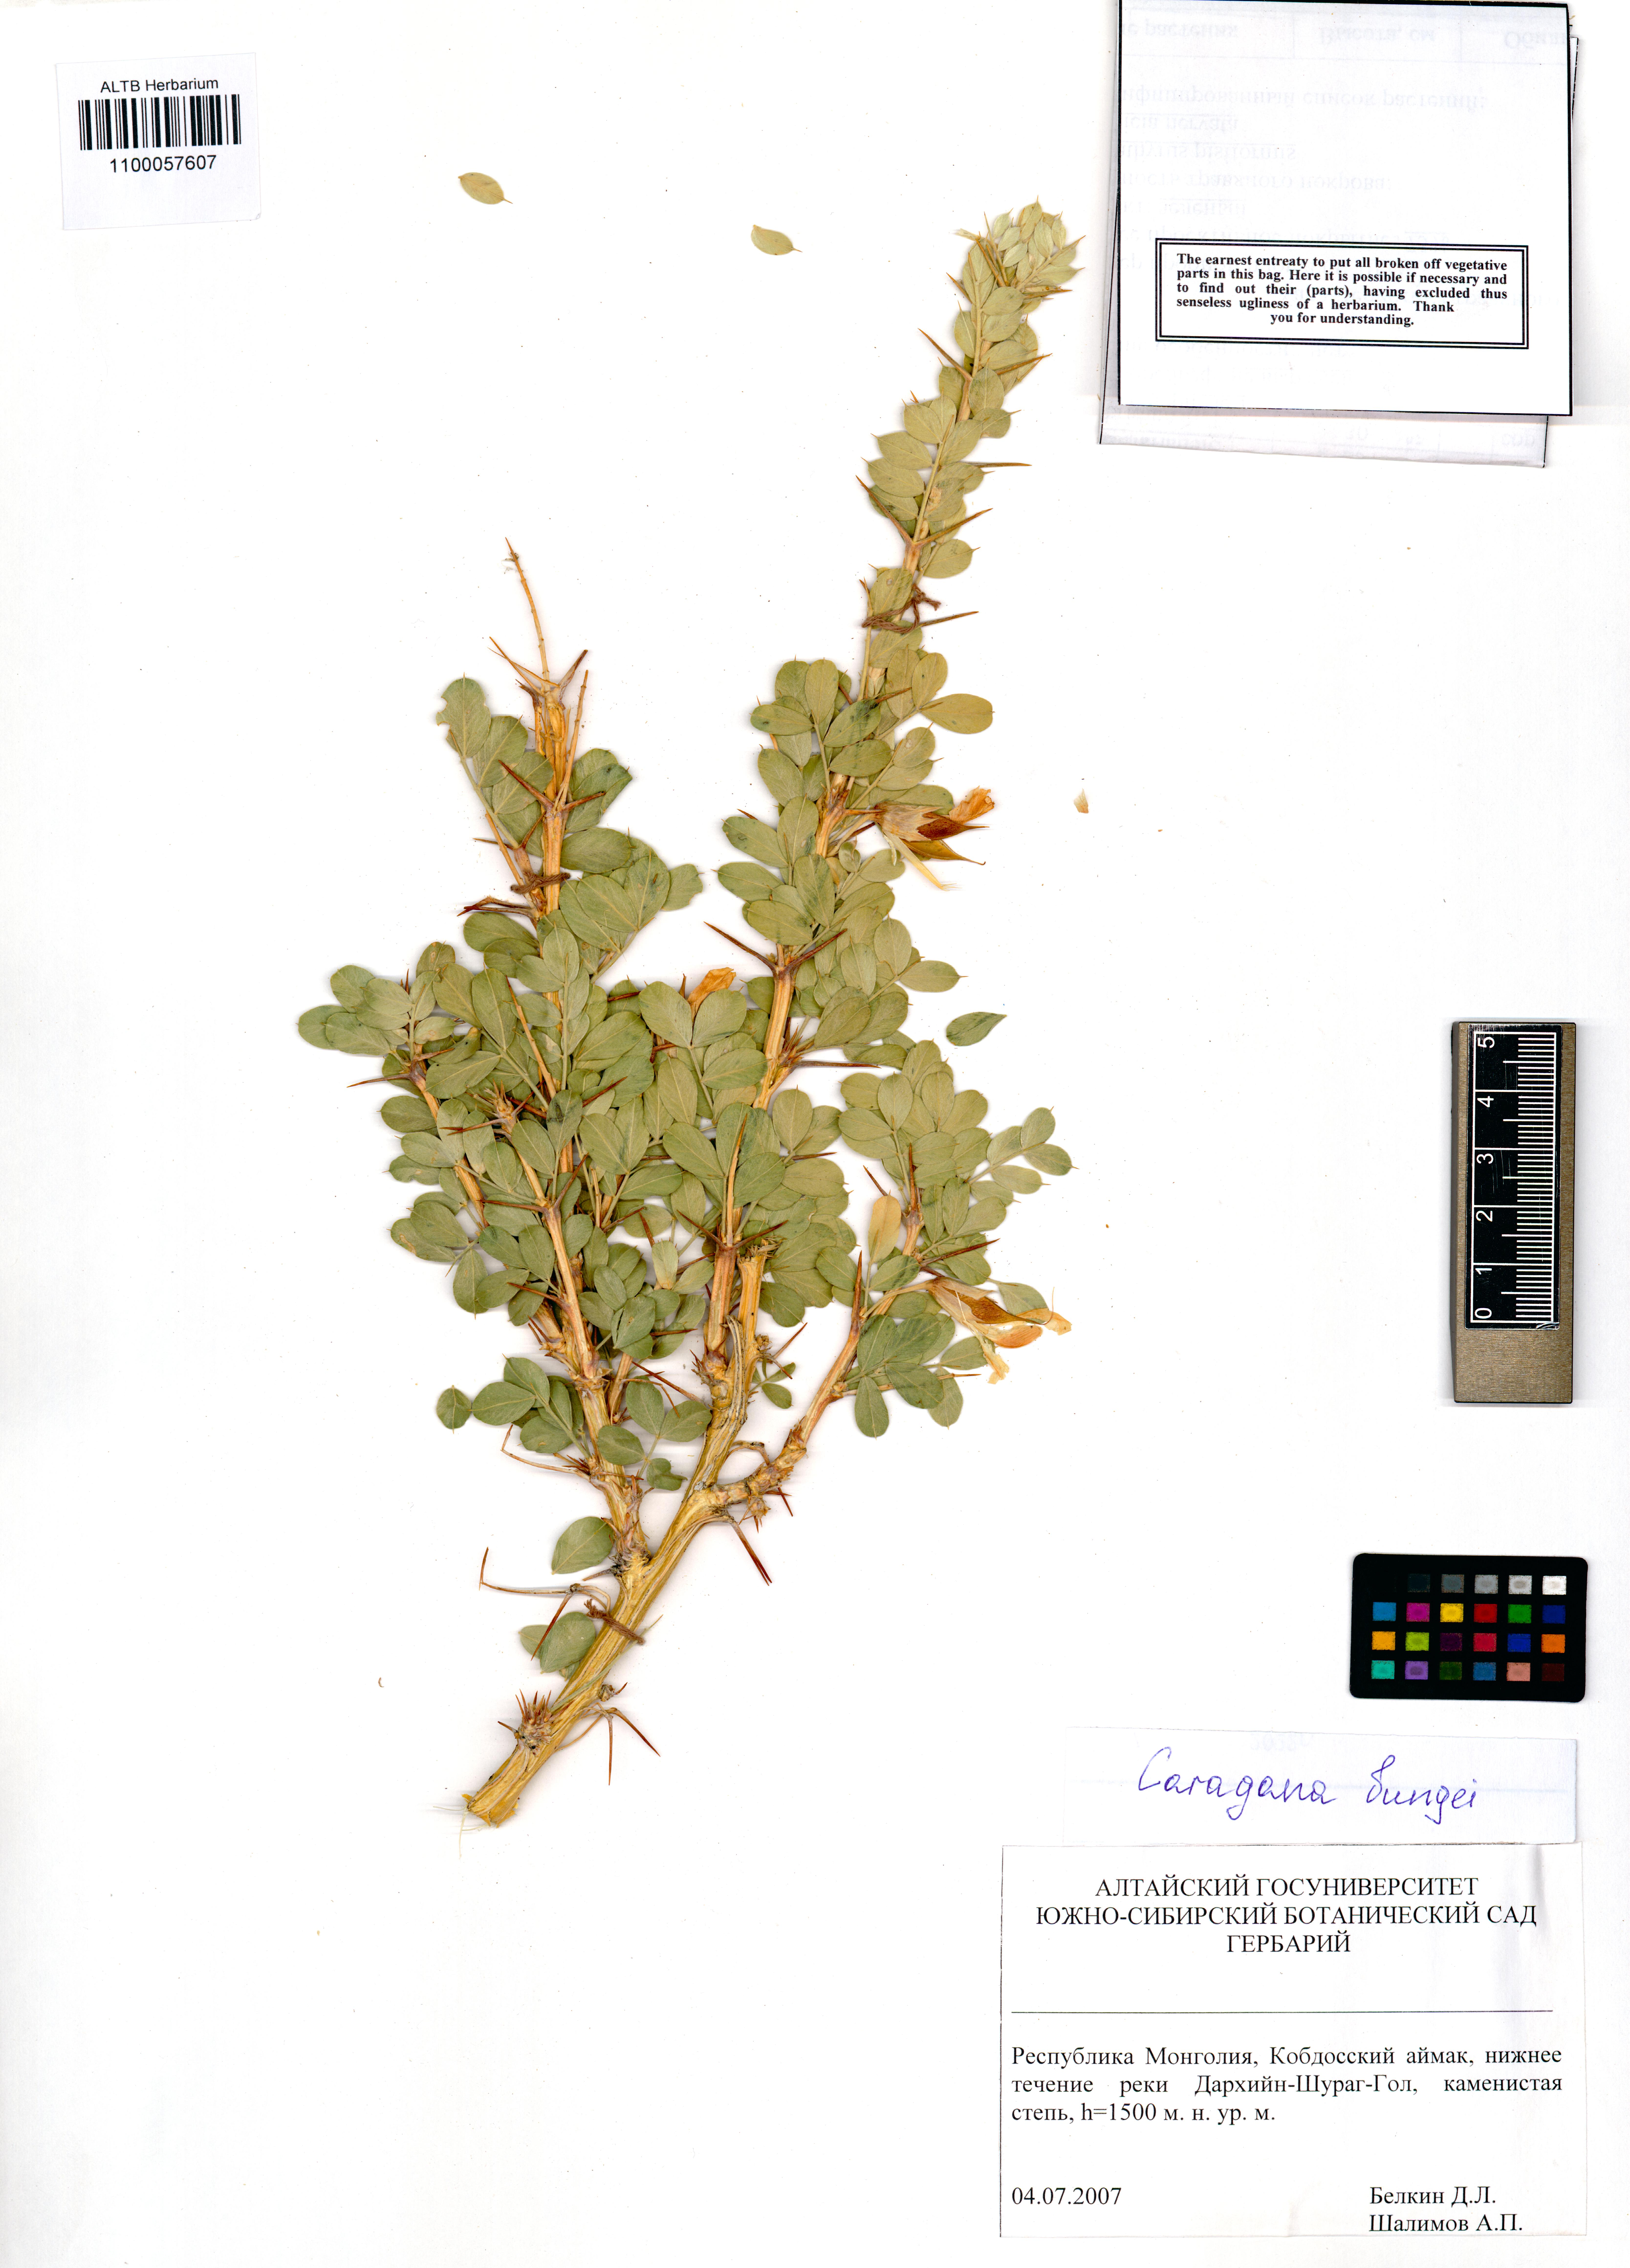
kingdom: Plantae
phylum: Tracheophyta
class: Magnoliopsida
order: Fabales
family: Fabaceae
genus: Caragana
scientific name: Caragana bungei
